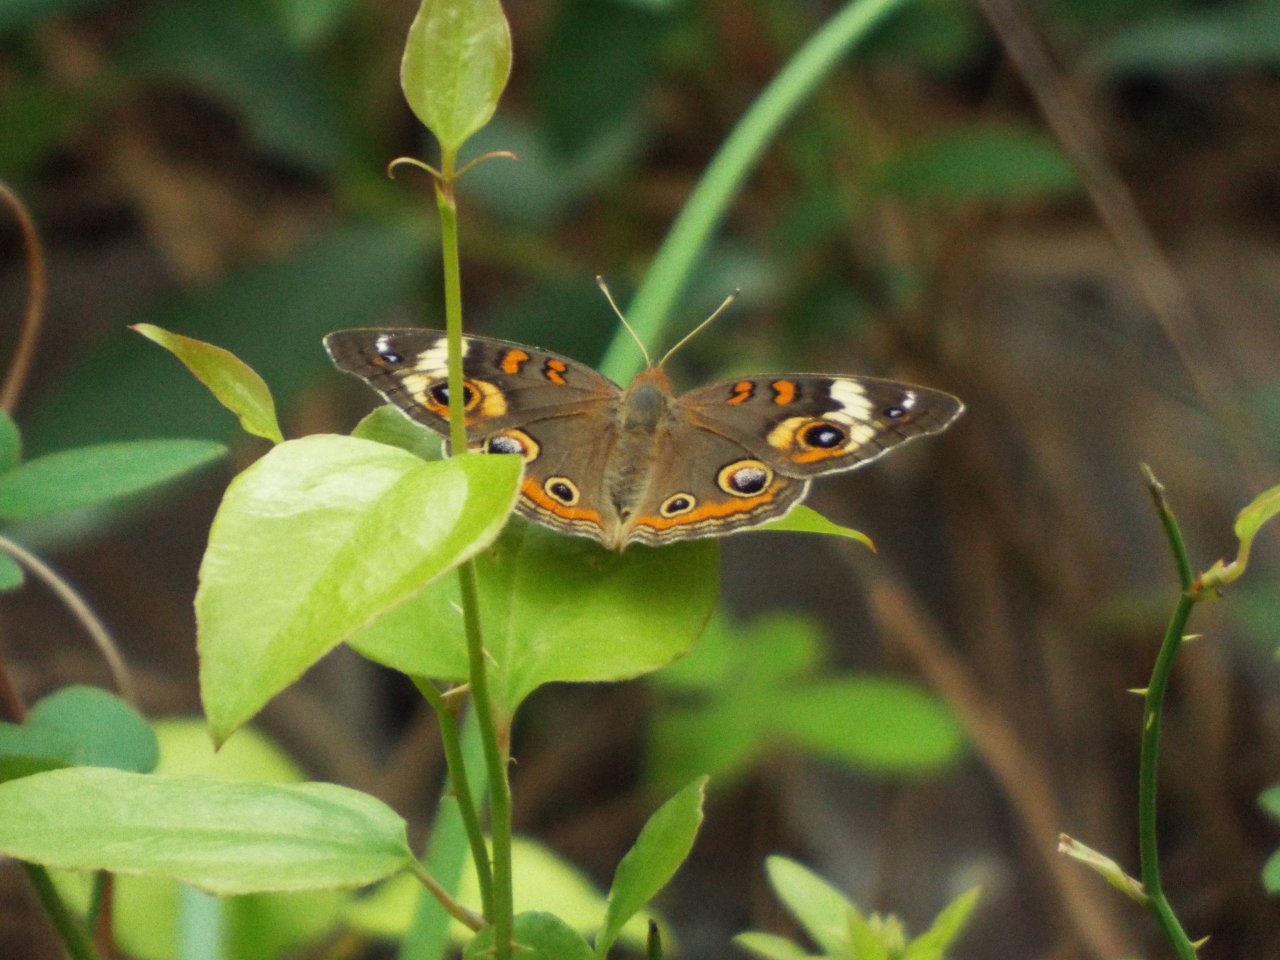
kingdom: Animalia
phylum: Arthropoda
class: Insecta
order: Lepidoptera
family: Nymphalidae
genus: Junonia
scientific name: Junonia coenia
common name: Common Buckeye
